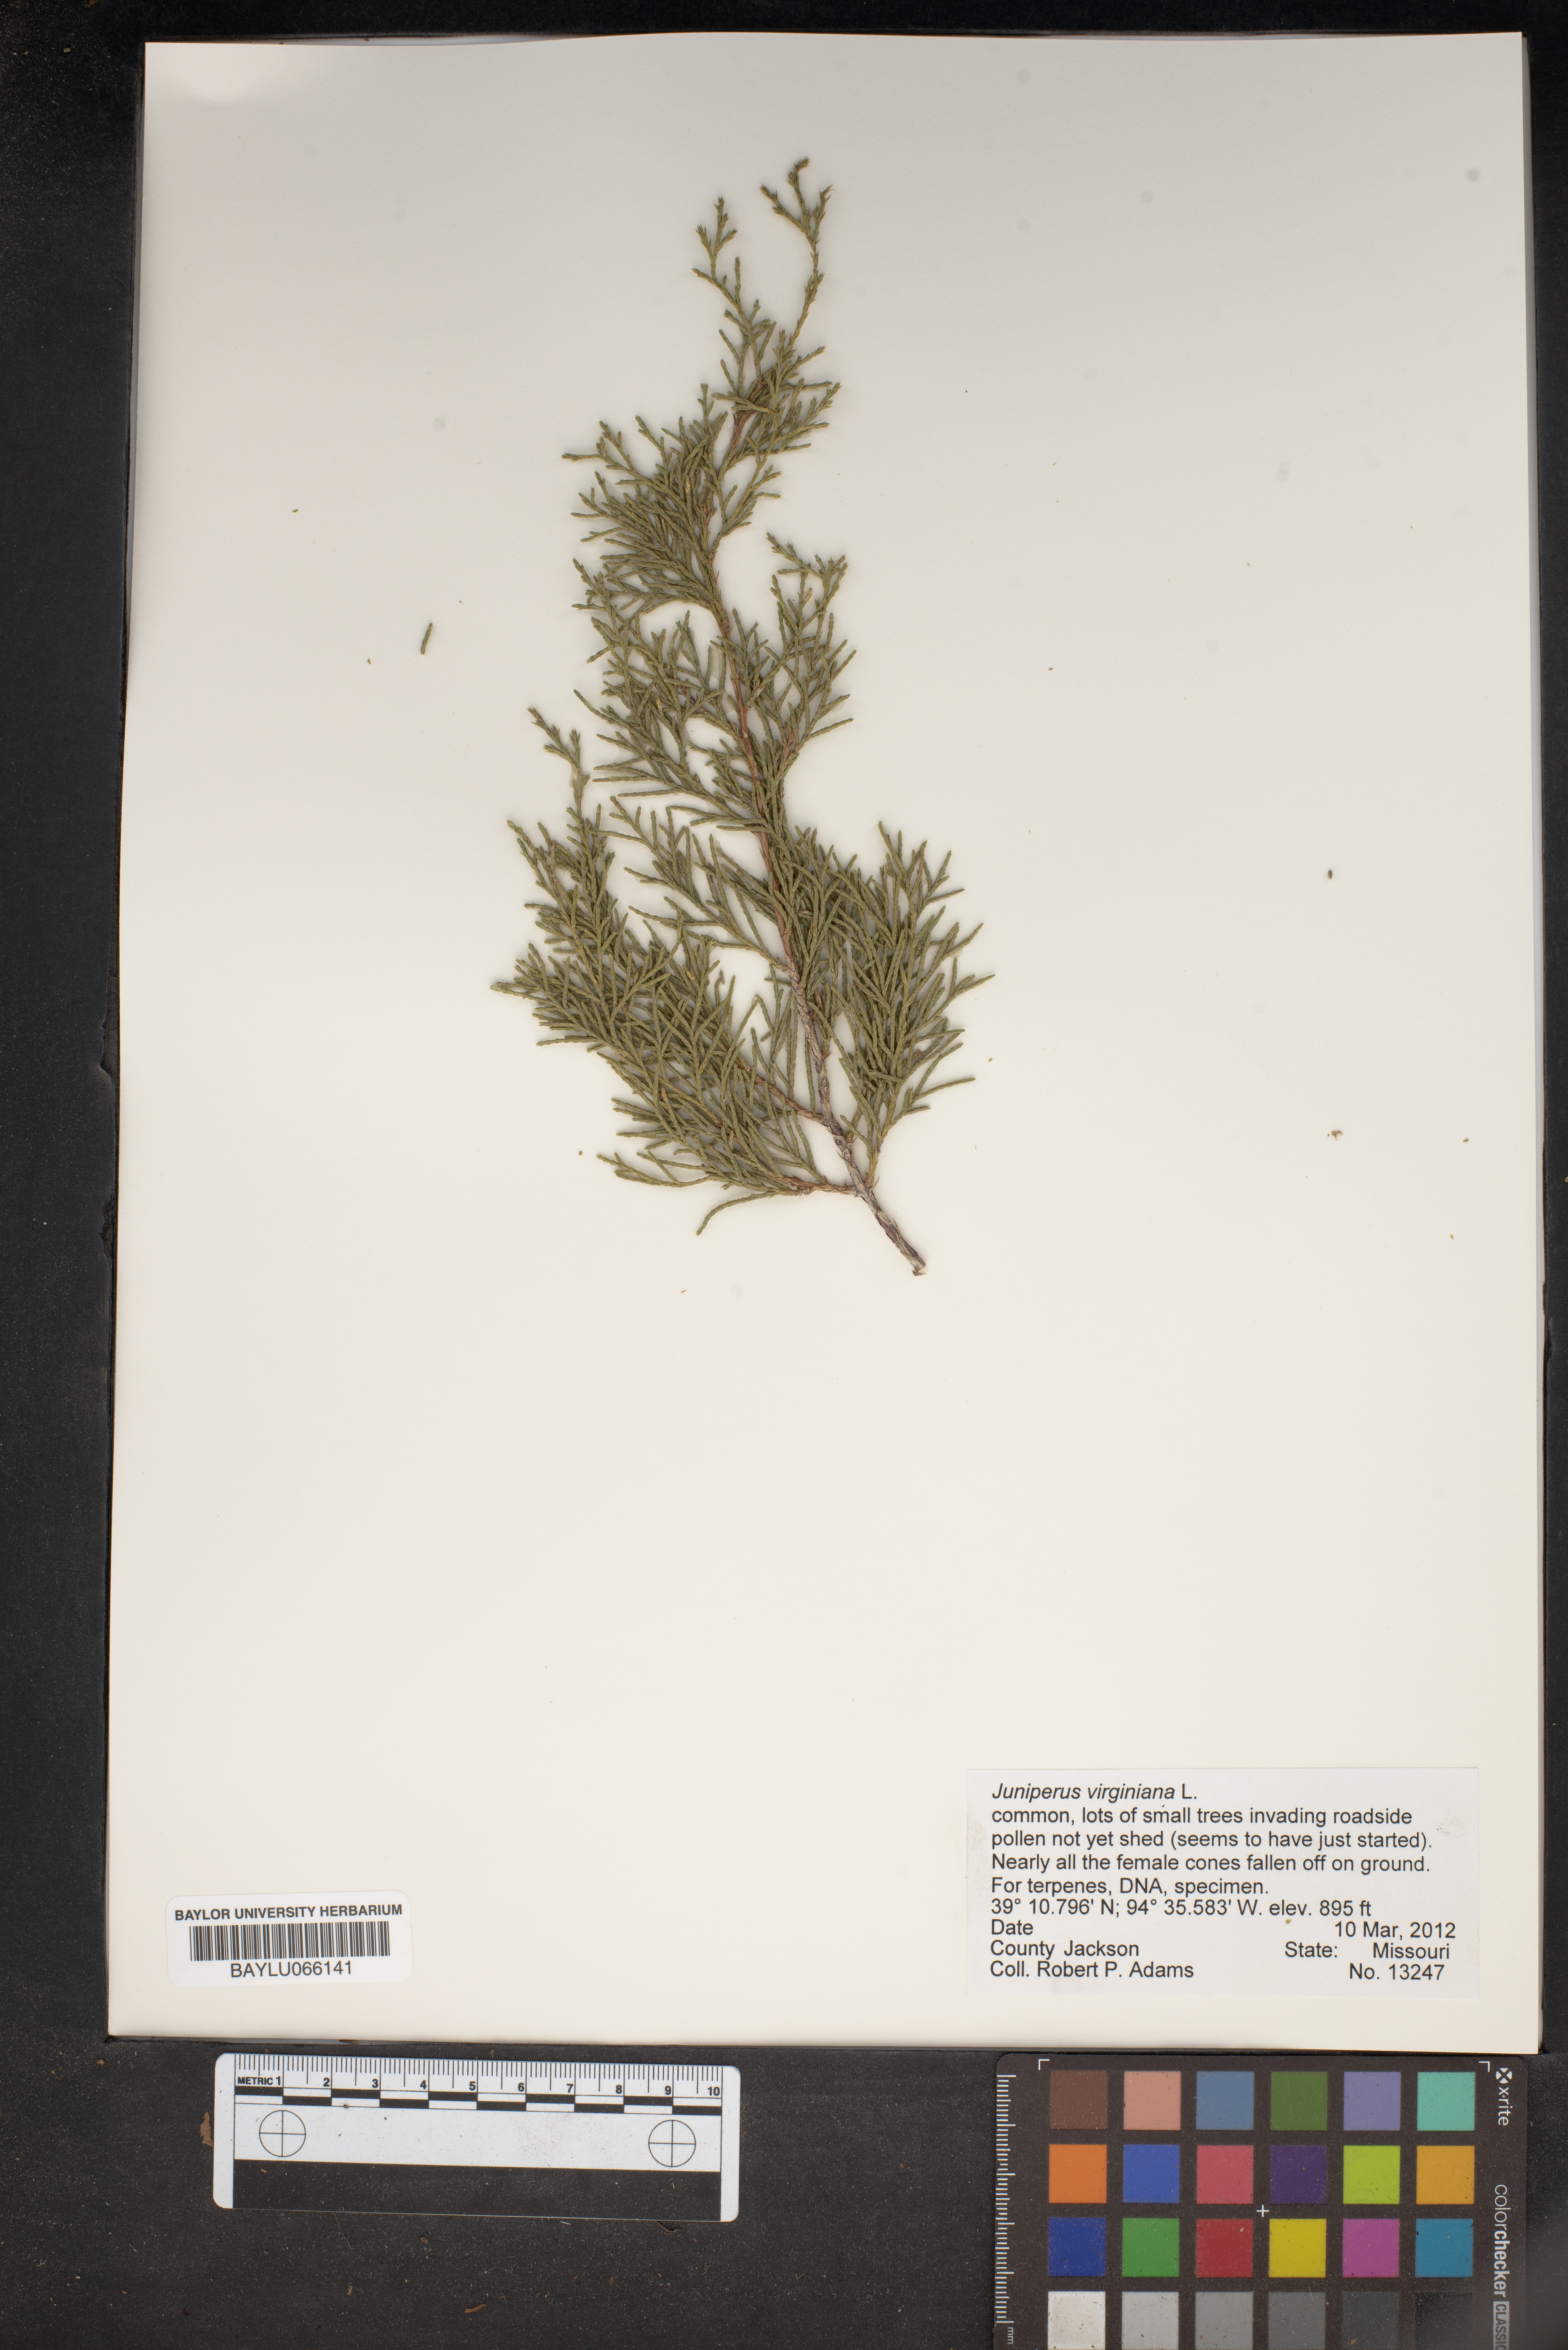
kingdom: Plantae
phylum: Tracheophyta
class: Pinopsida
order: Pinales
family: Cupressaceae
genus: Juniperus
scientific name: Juniperus virginiana
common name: Red juniper
